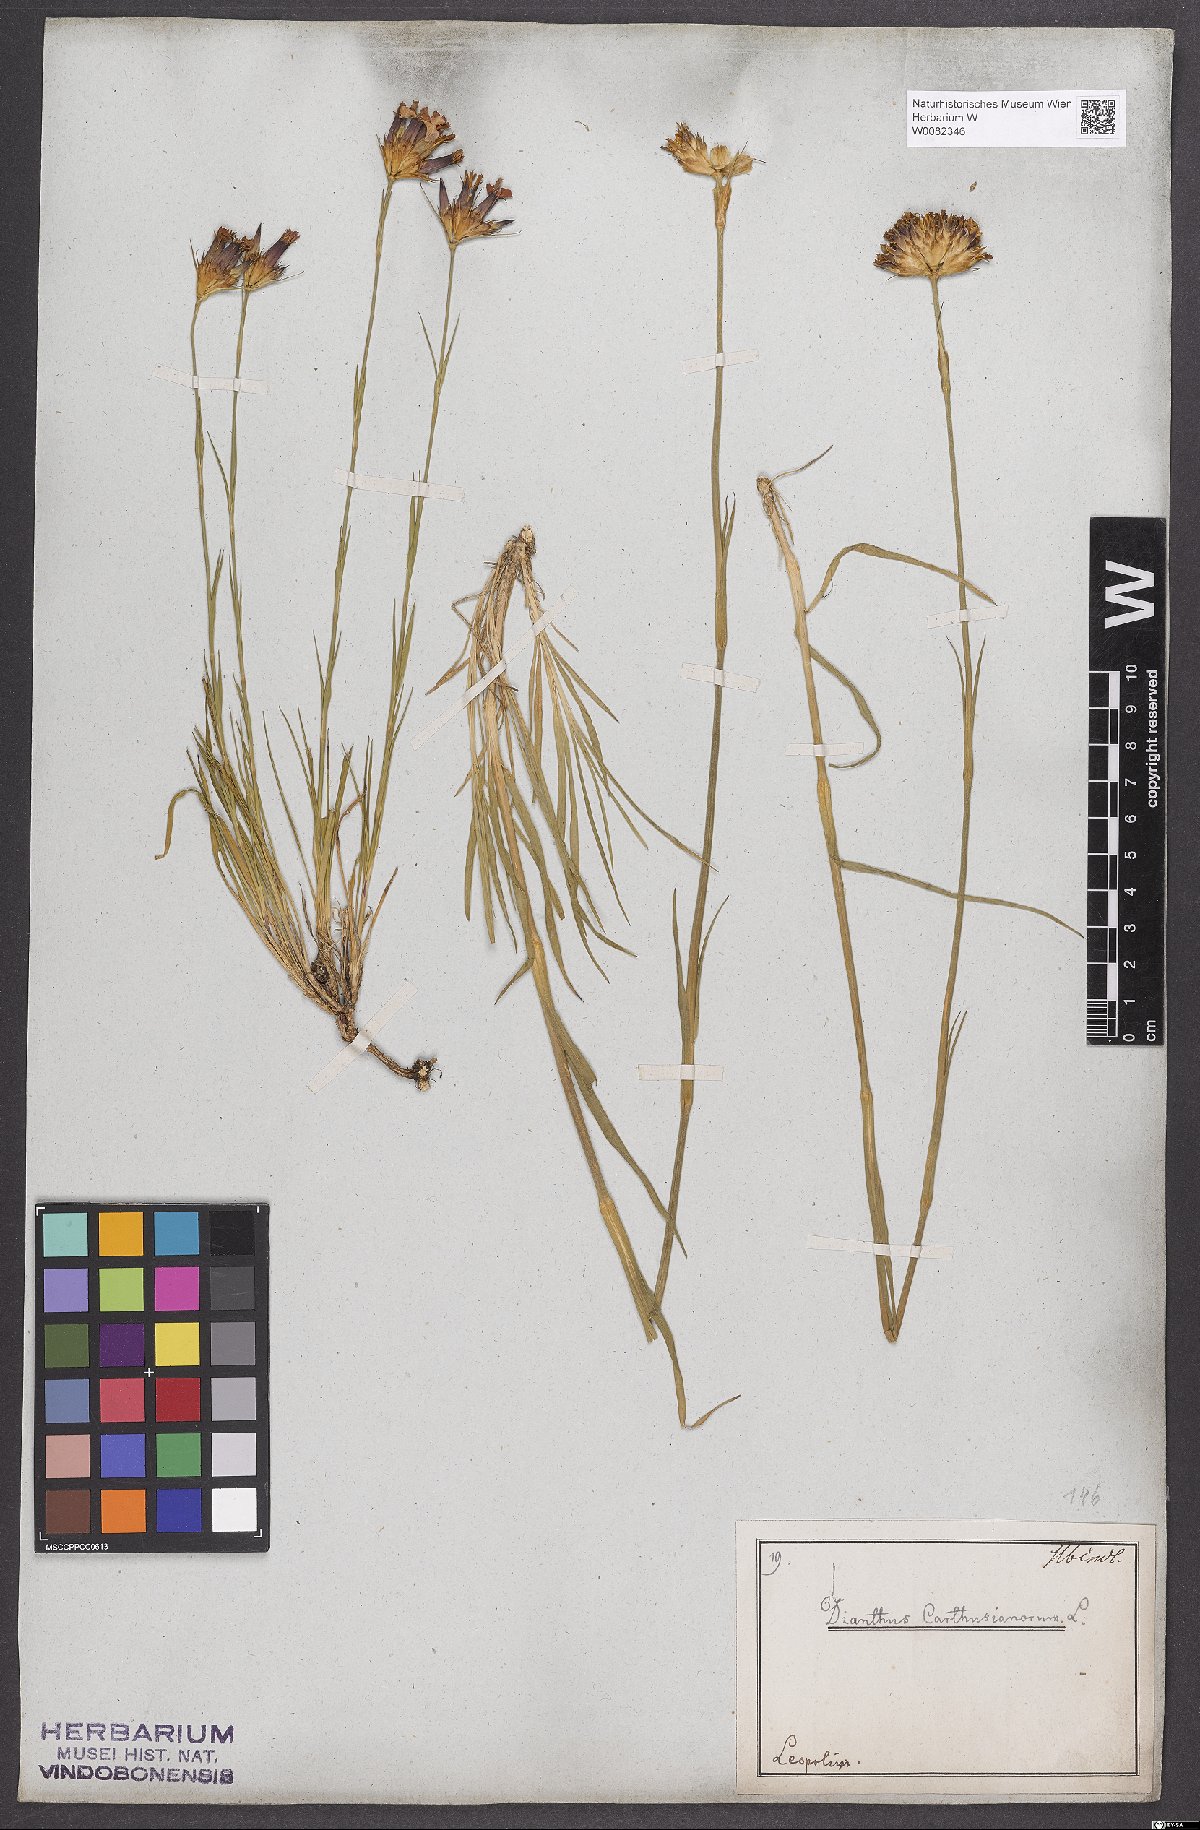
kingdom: Plantae
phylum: Tracheophyta
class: Magnoliopsida
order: Caryophyllales
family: Caryophyllaceae
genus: Dianthus
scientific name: Dianthus carthusianorum
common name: Carthusian pink
